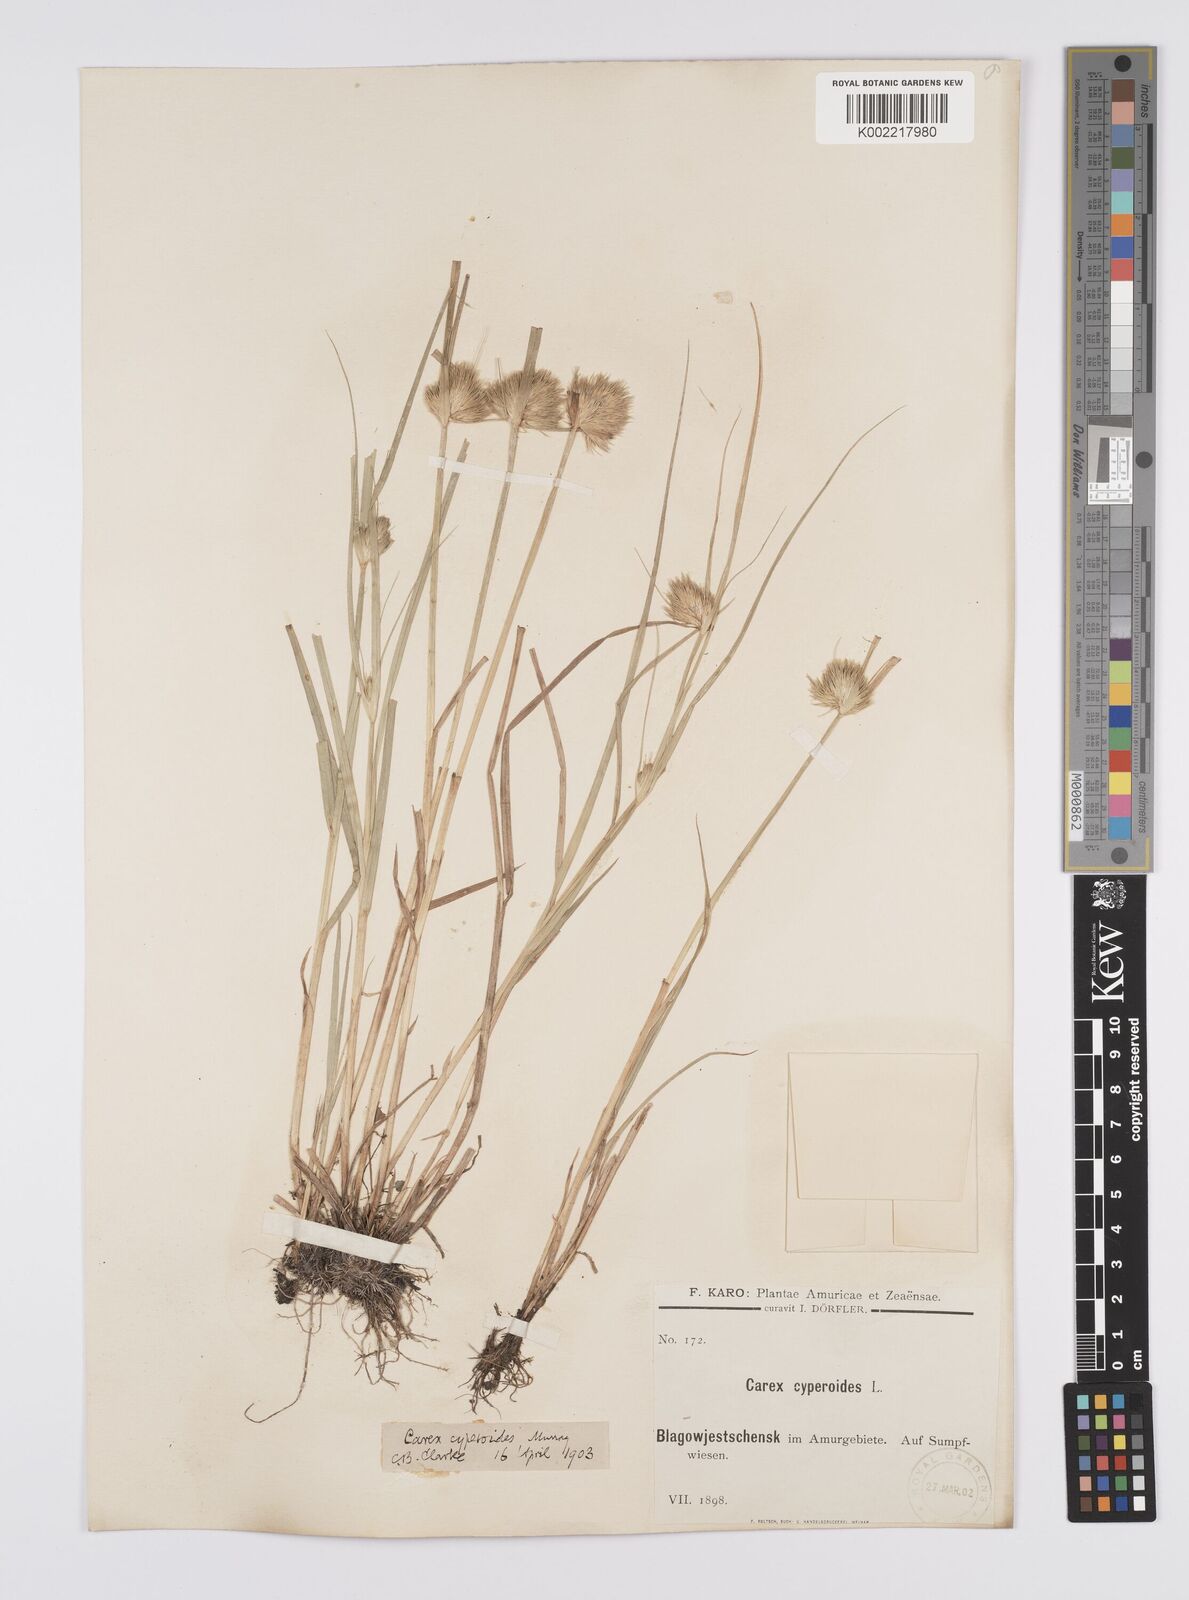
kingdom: Plantae
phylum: Tracheophyta
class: Liliopsida
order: Poales
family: Cyperaceae
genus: Carex
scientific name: Carex bohemica
